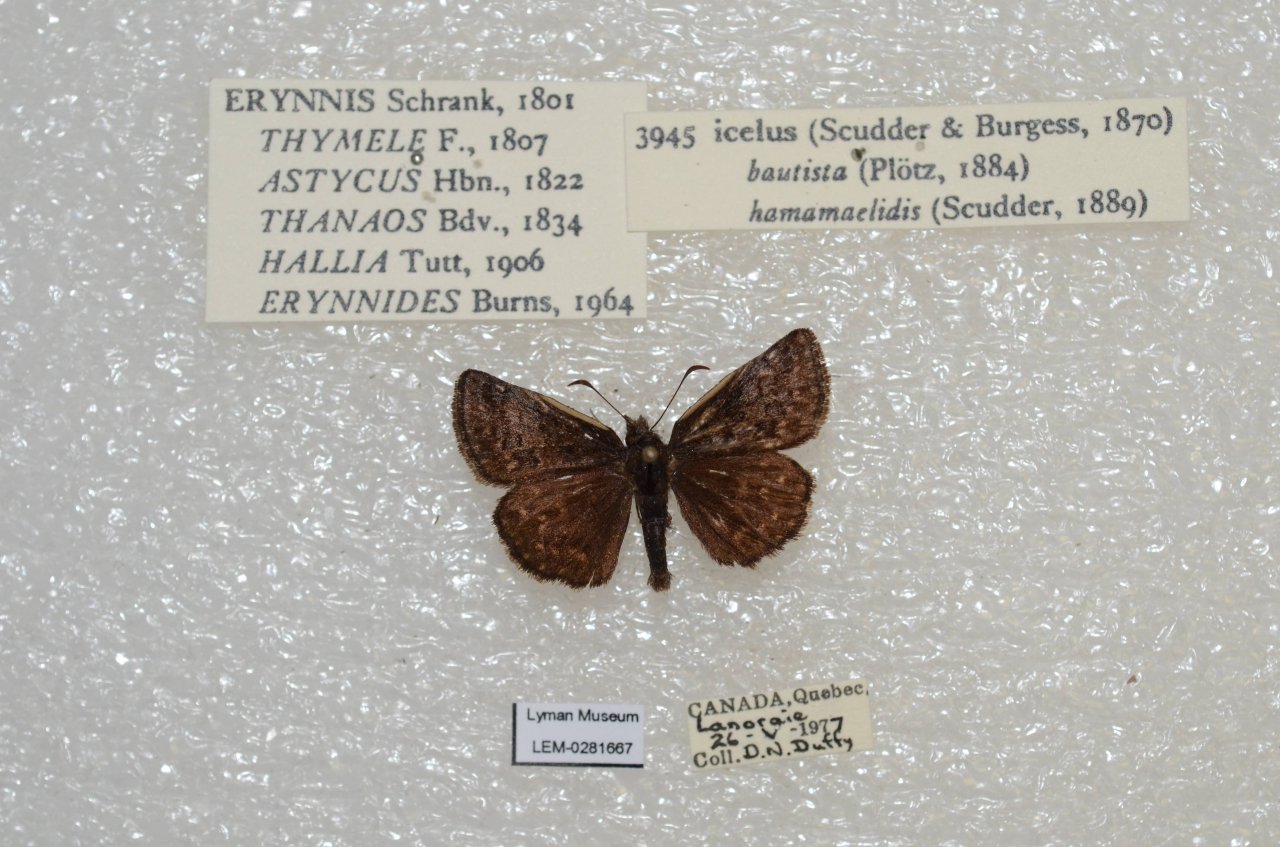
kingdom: Animalia
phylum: Arthropoda
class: Insecta
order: Lepidoptera
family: Hesperiidae
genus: Erynnis
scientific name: Erynnis icelus
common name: Dreamy Duskywing
